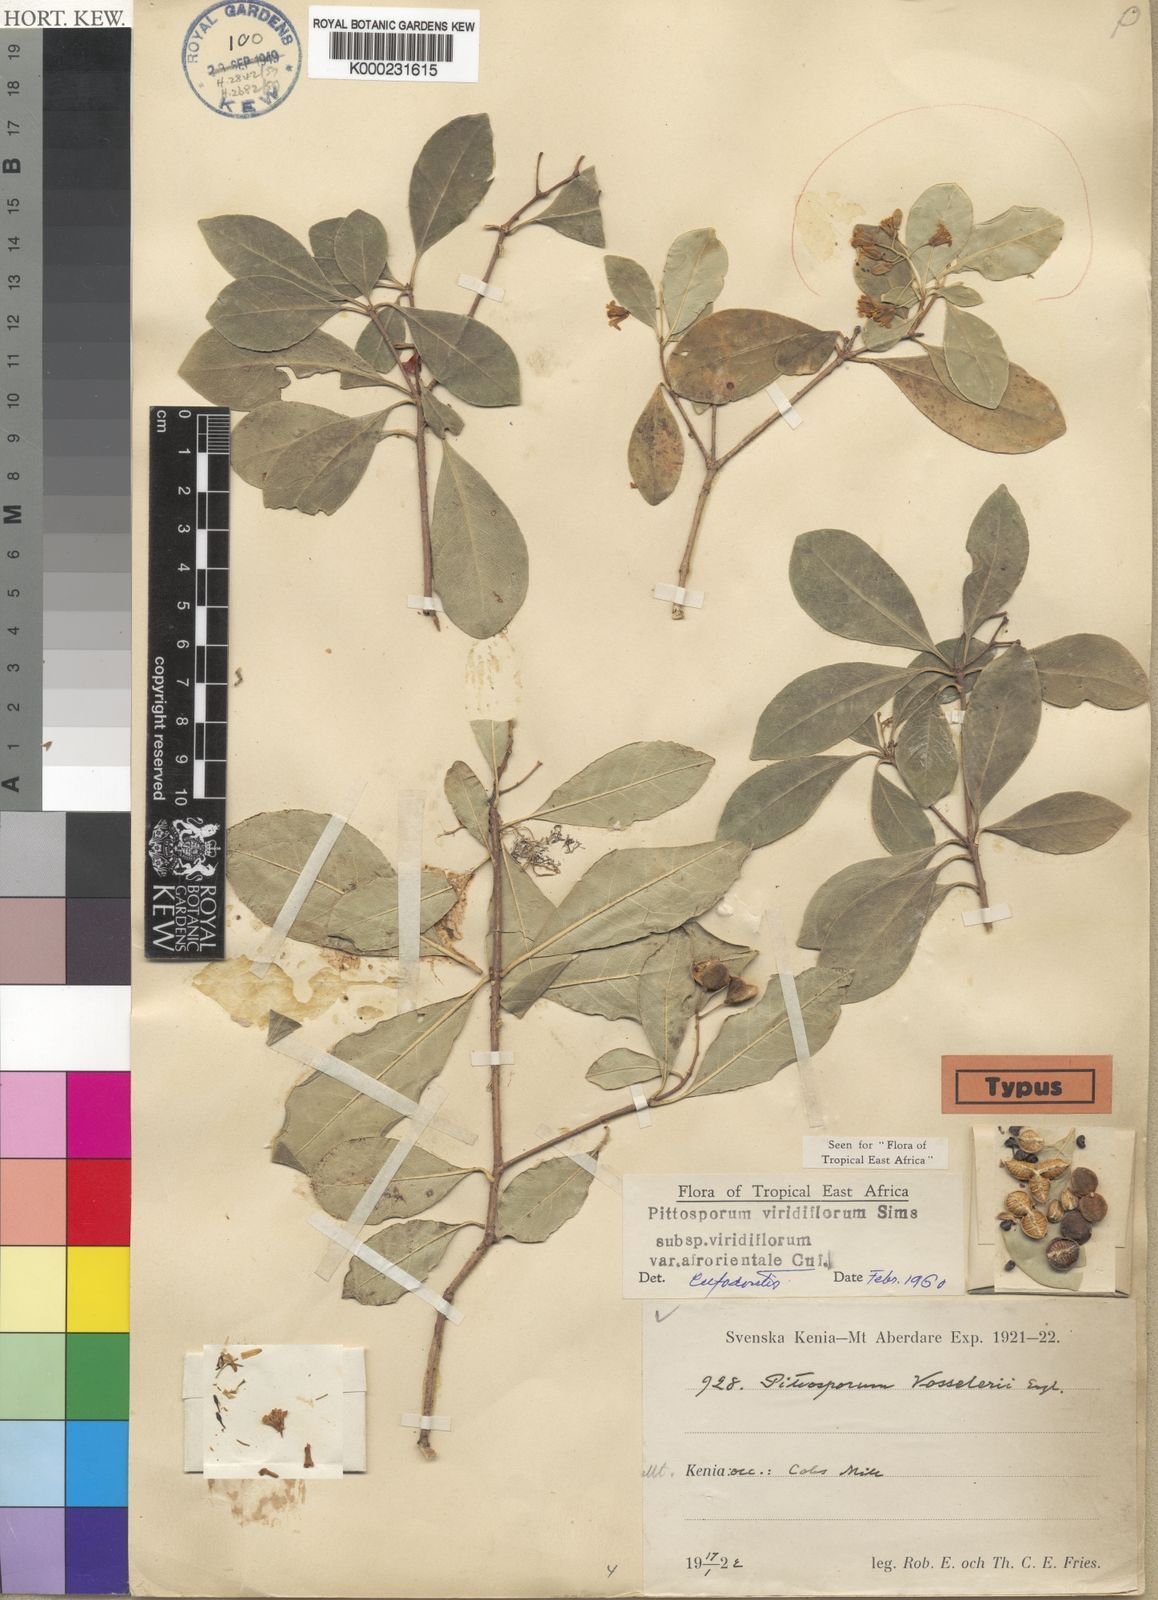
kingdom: Plantae
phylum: Tracheophyta
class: Magnoliopsida
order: Apiales
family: Pittosporaceae
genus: Pittosporum
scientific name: Pittosporum
